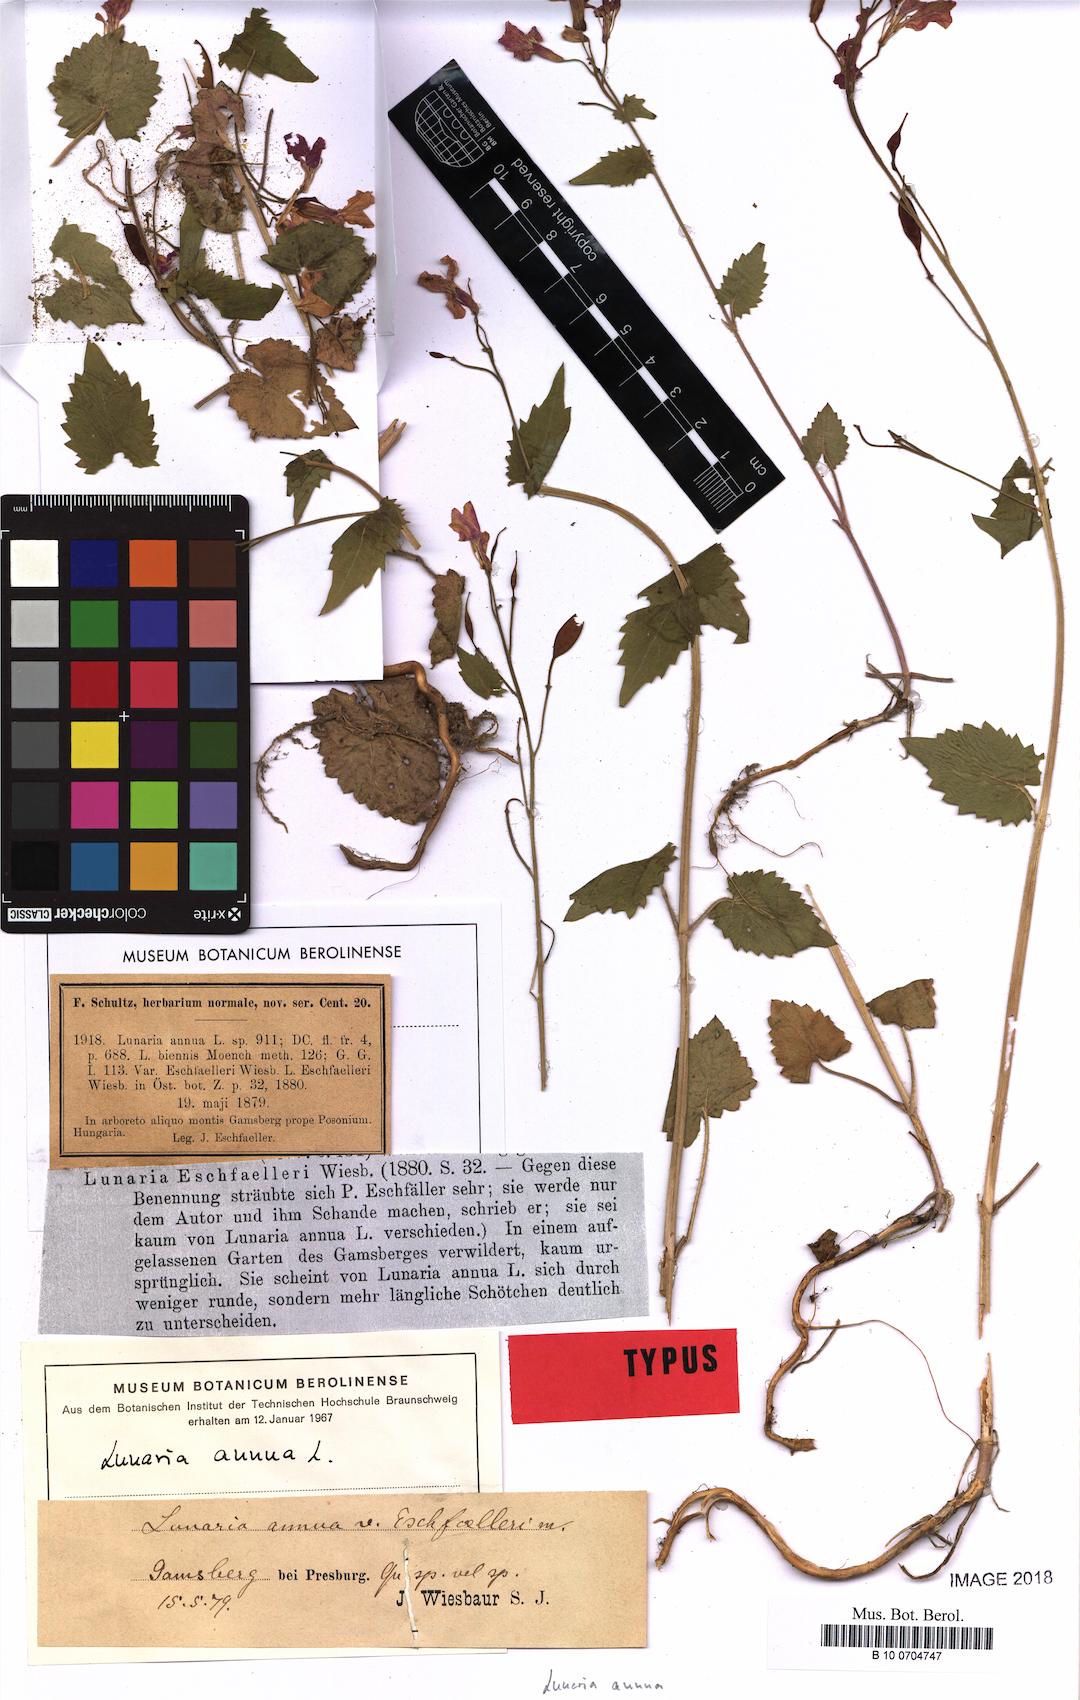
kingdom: Plantae
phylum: Tracheophyta
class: Magnoliopsida
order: Brassicales
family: Brassicaceae
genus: Lunaria
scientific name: Lunaria annua
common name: Honesty
